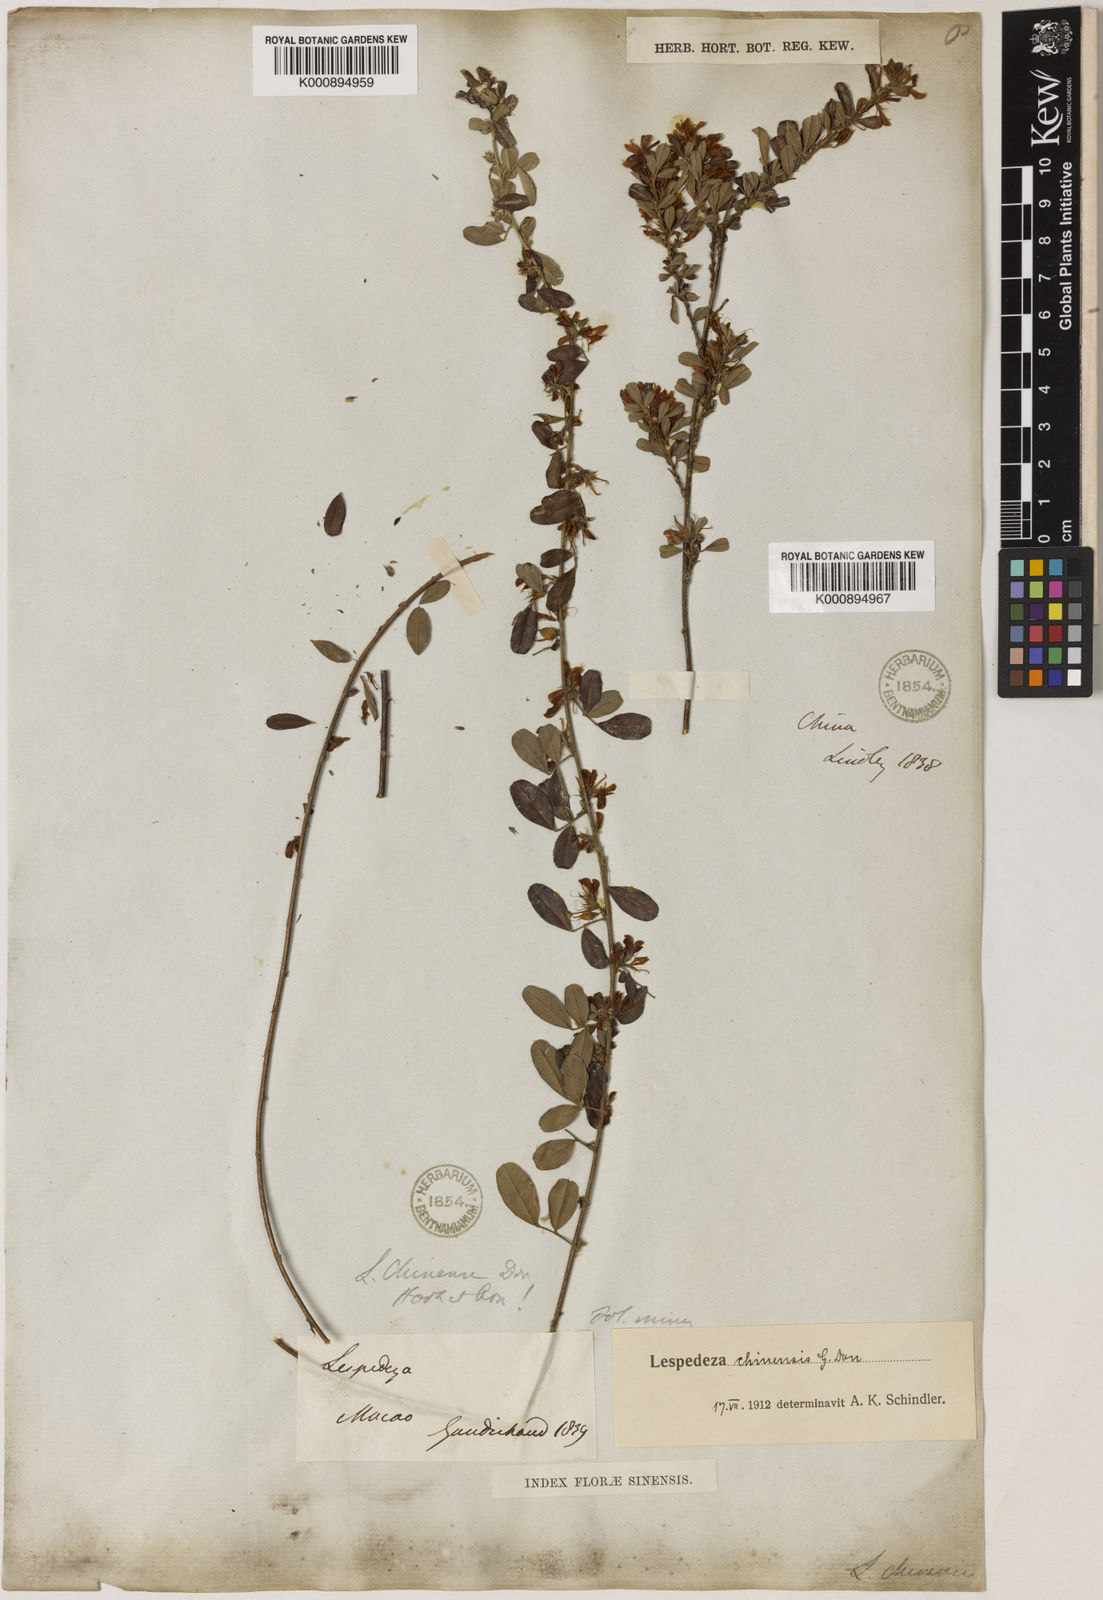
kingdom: Plantae
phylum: Tracheophyta
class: Magnoliopsida
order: Fabales
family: Fabaceae
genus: Lespedeza
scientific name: Lespedeza chinensis
